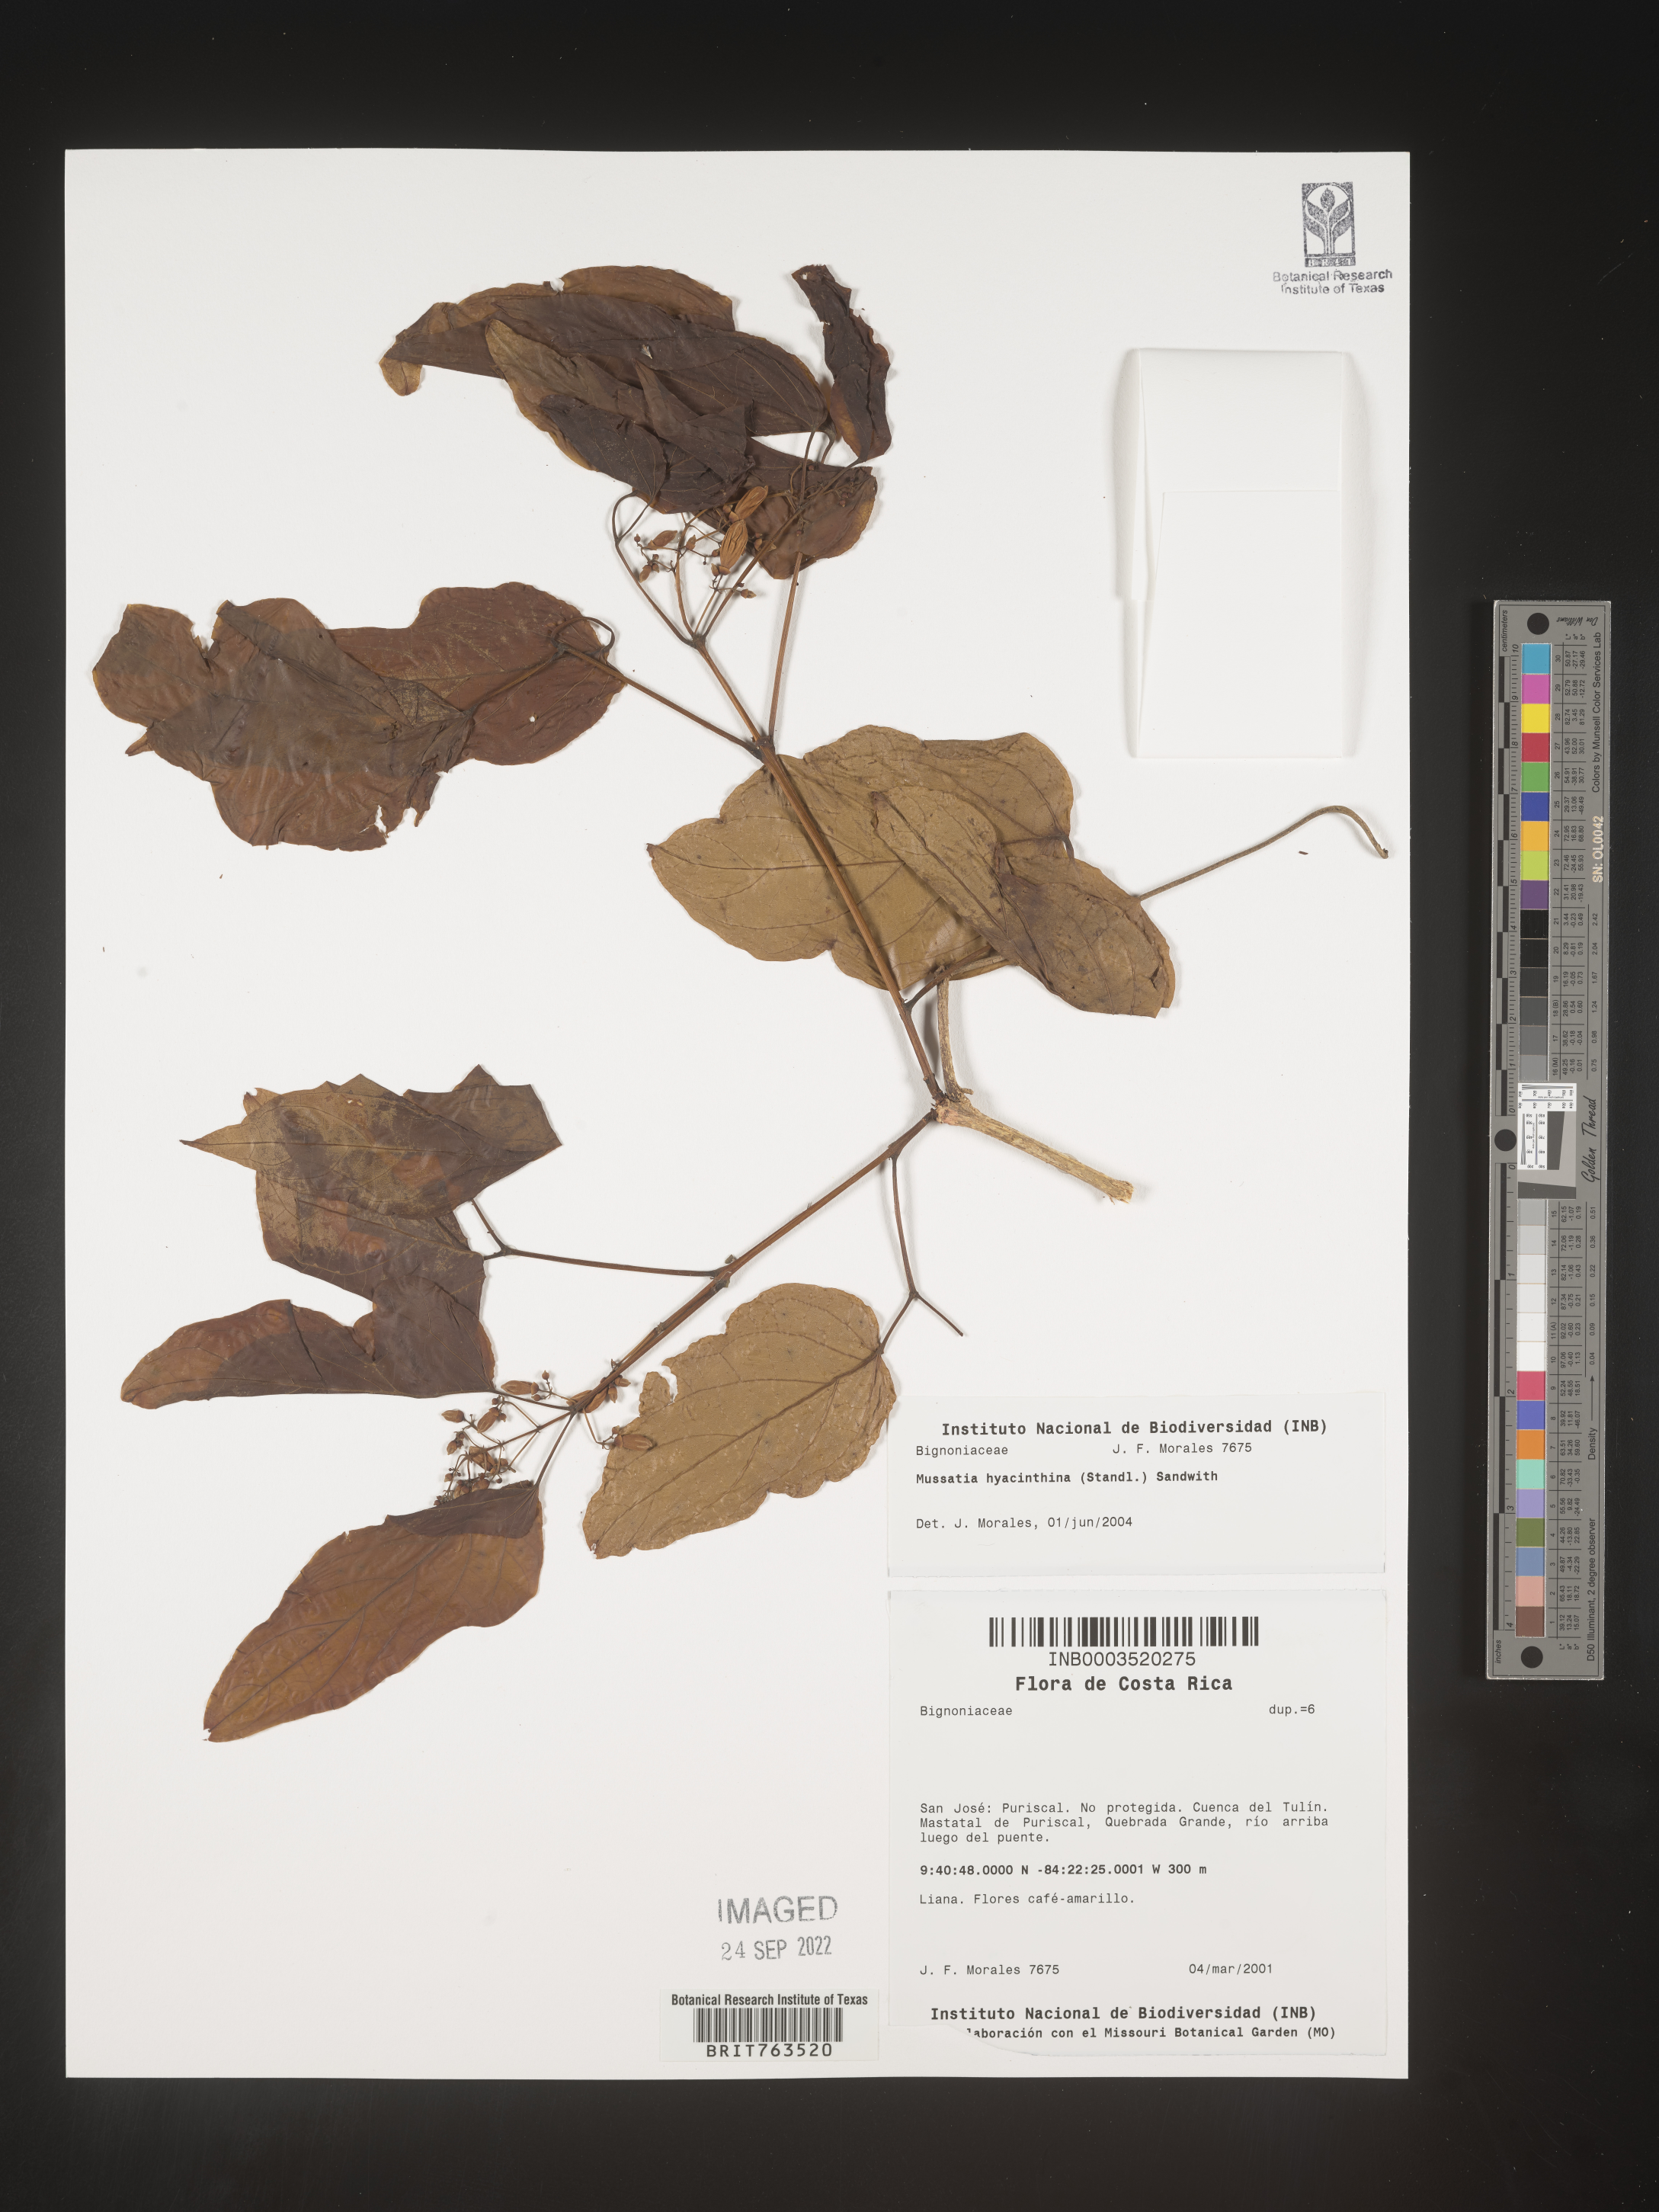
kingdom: Plantae
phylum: Tracheophyta
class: Magnoliopsida
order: Lamiales
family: Bignoniaceae
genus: Mussatia
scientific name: Mussatia
